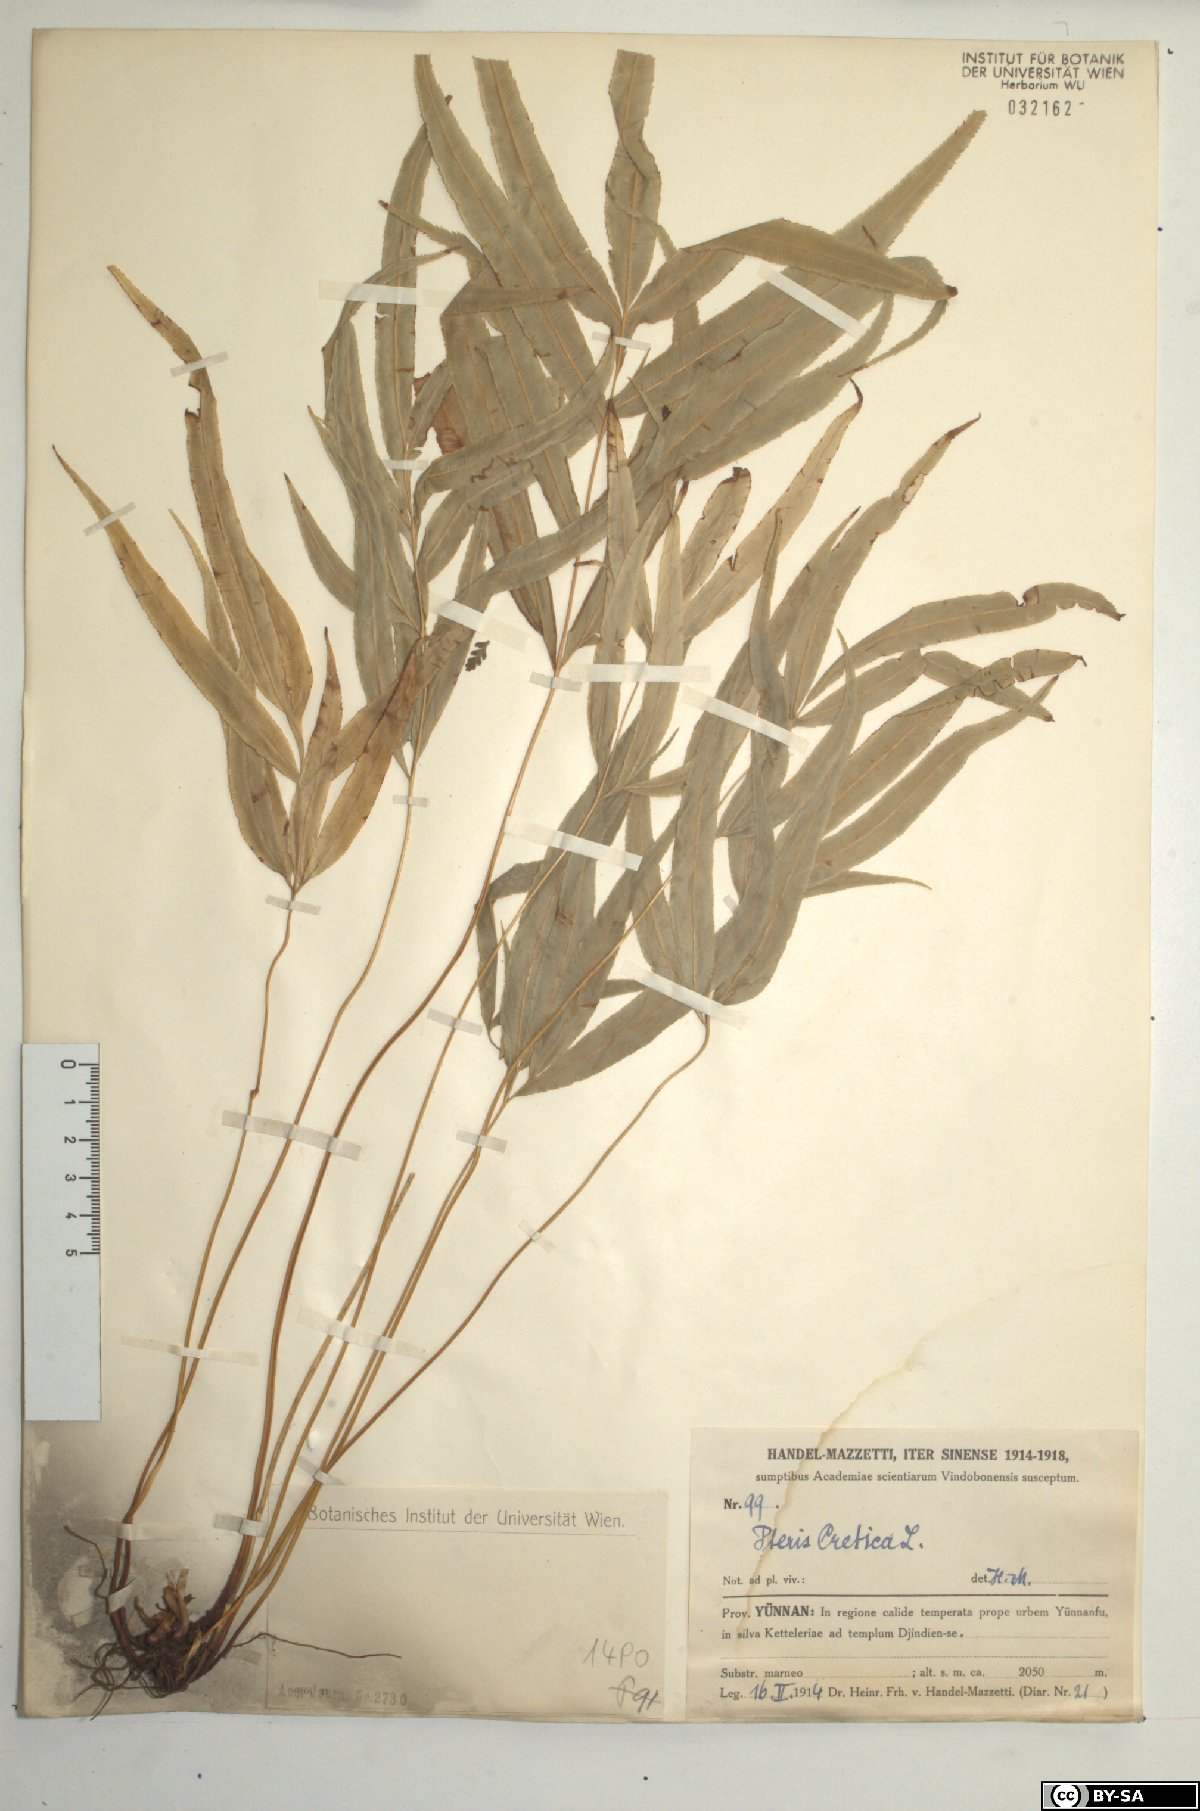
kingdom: Plantae
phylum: Tracheophyta
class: Polypodiopsida
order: Polypodiales
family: Pteridaceae
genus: Pteris
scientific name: Pteris cretica
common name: Ribbon fern
